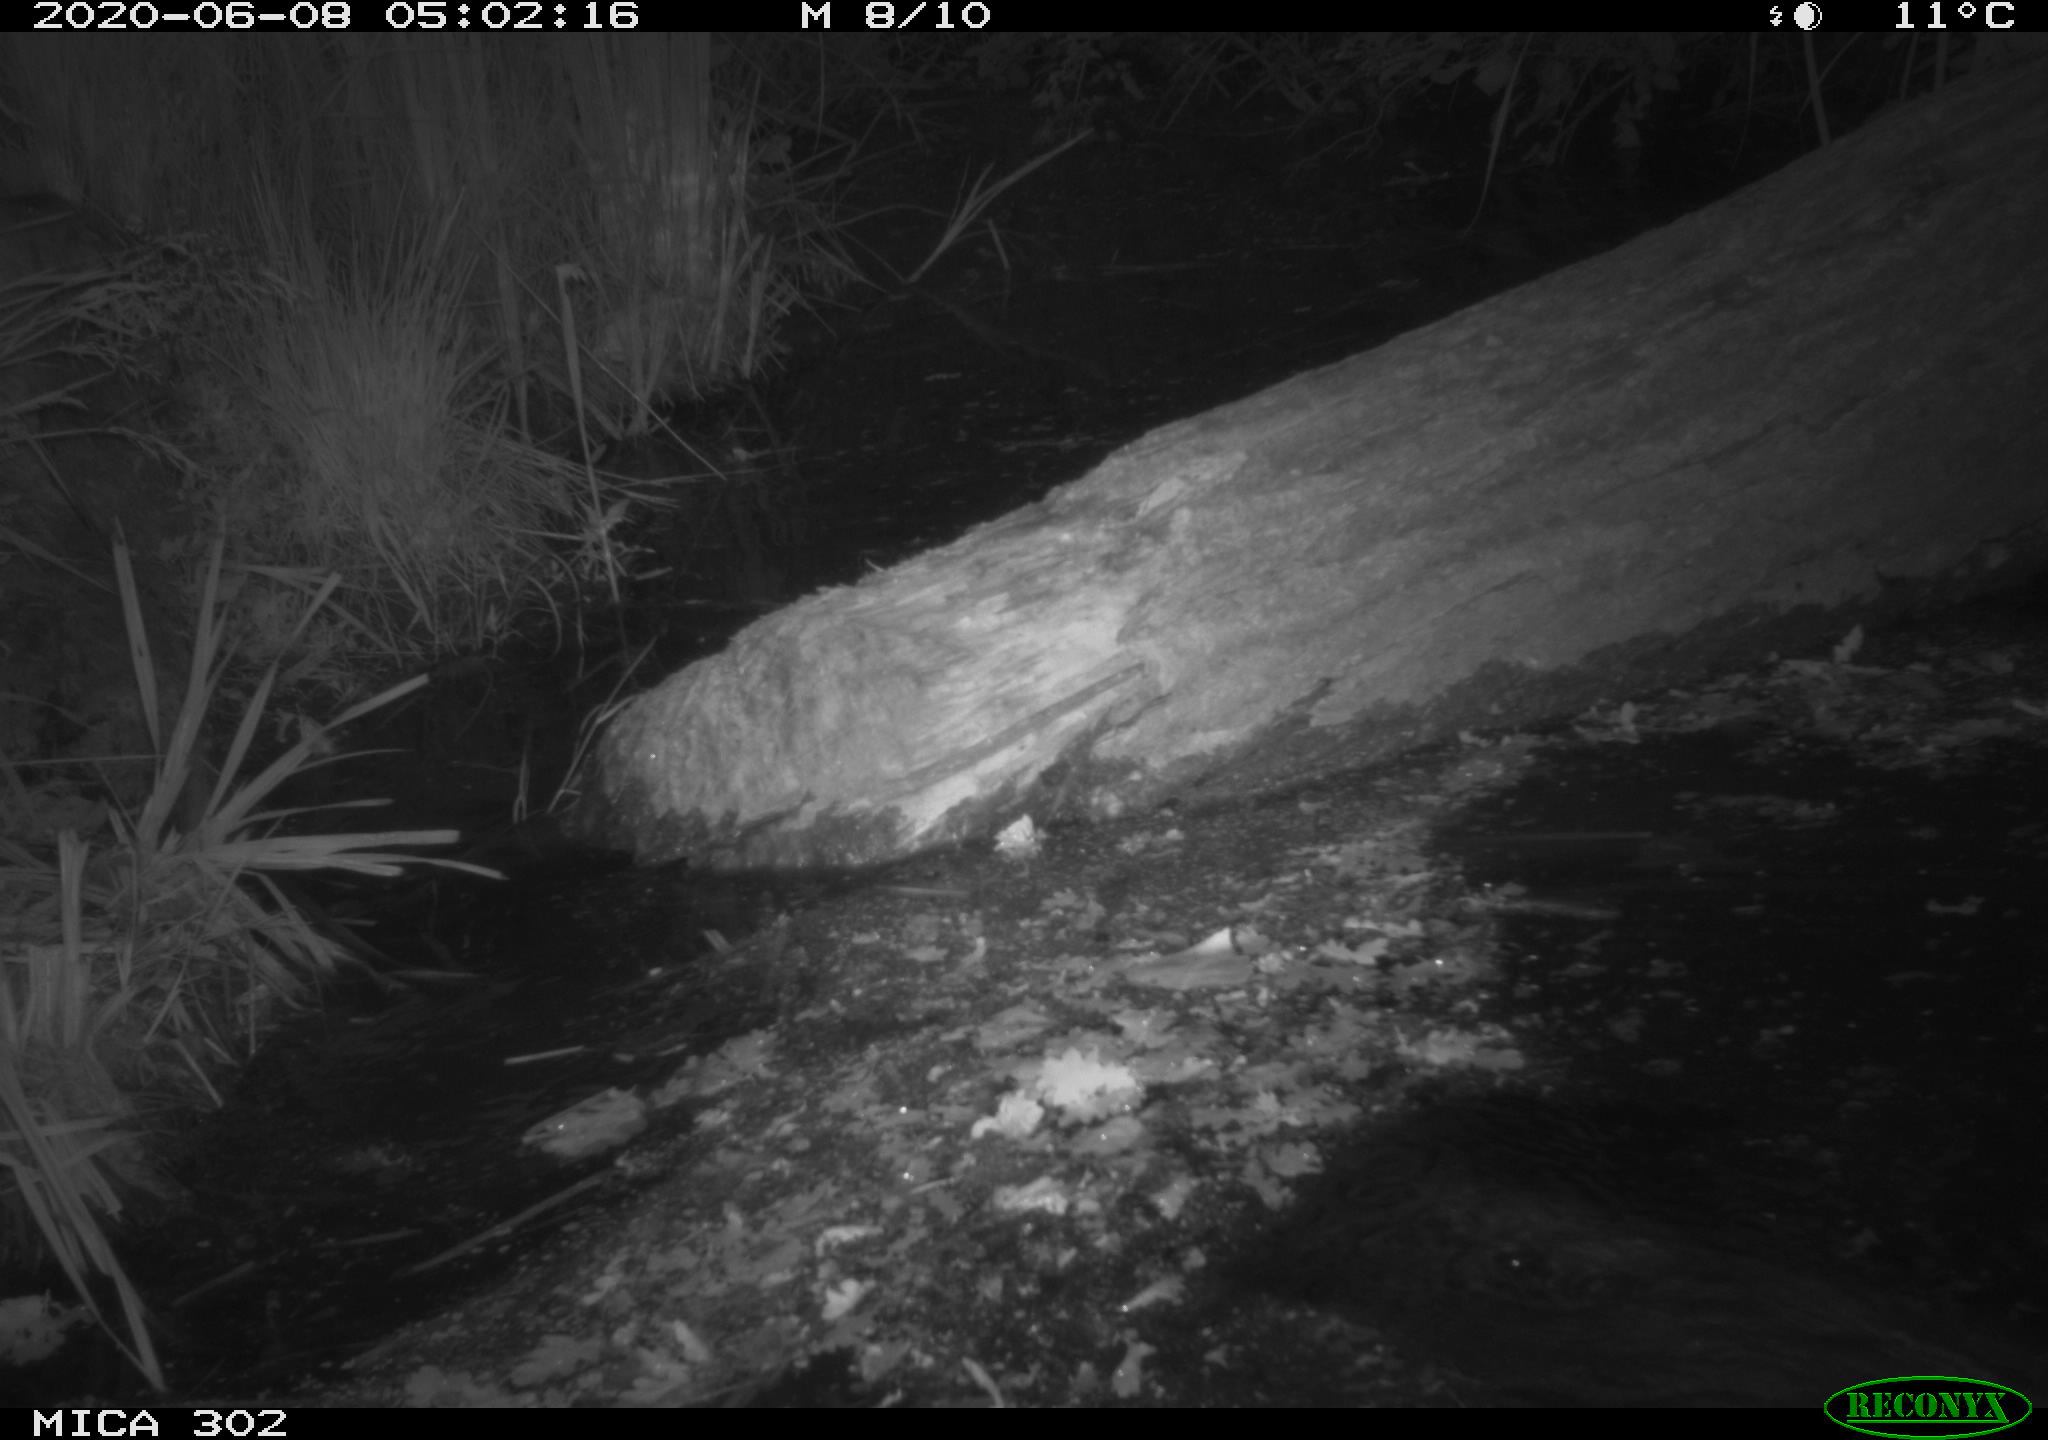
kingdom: Animalia
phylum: Chordata
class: Mammalia
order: Rodentia
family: Castoridae
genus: Castor
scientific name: Castor fiber
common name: Eurasian beaver
